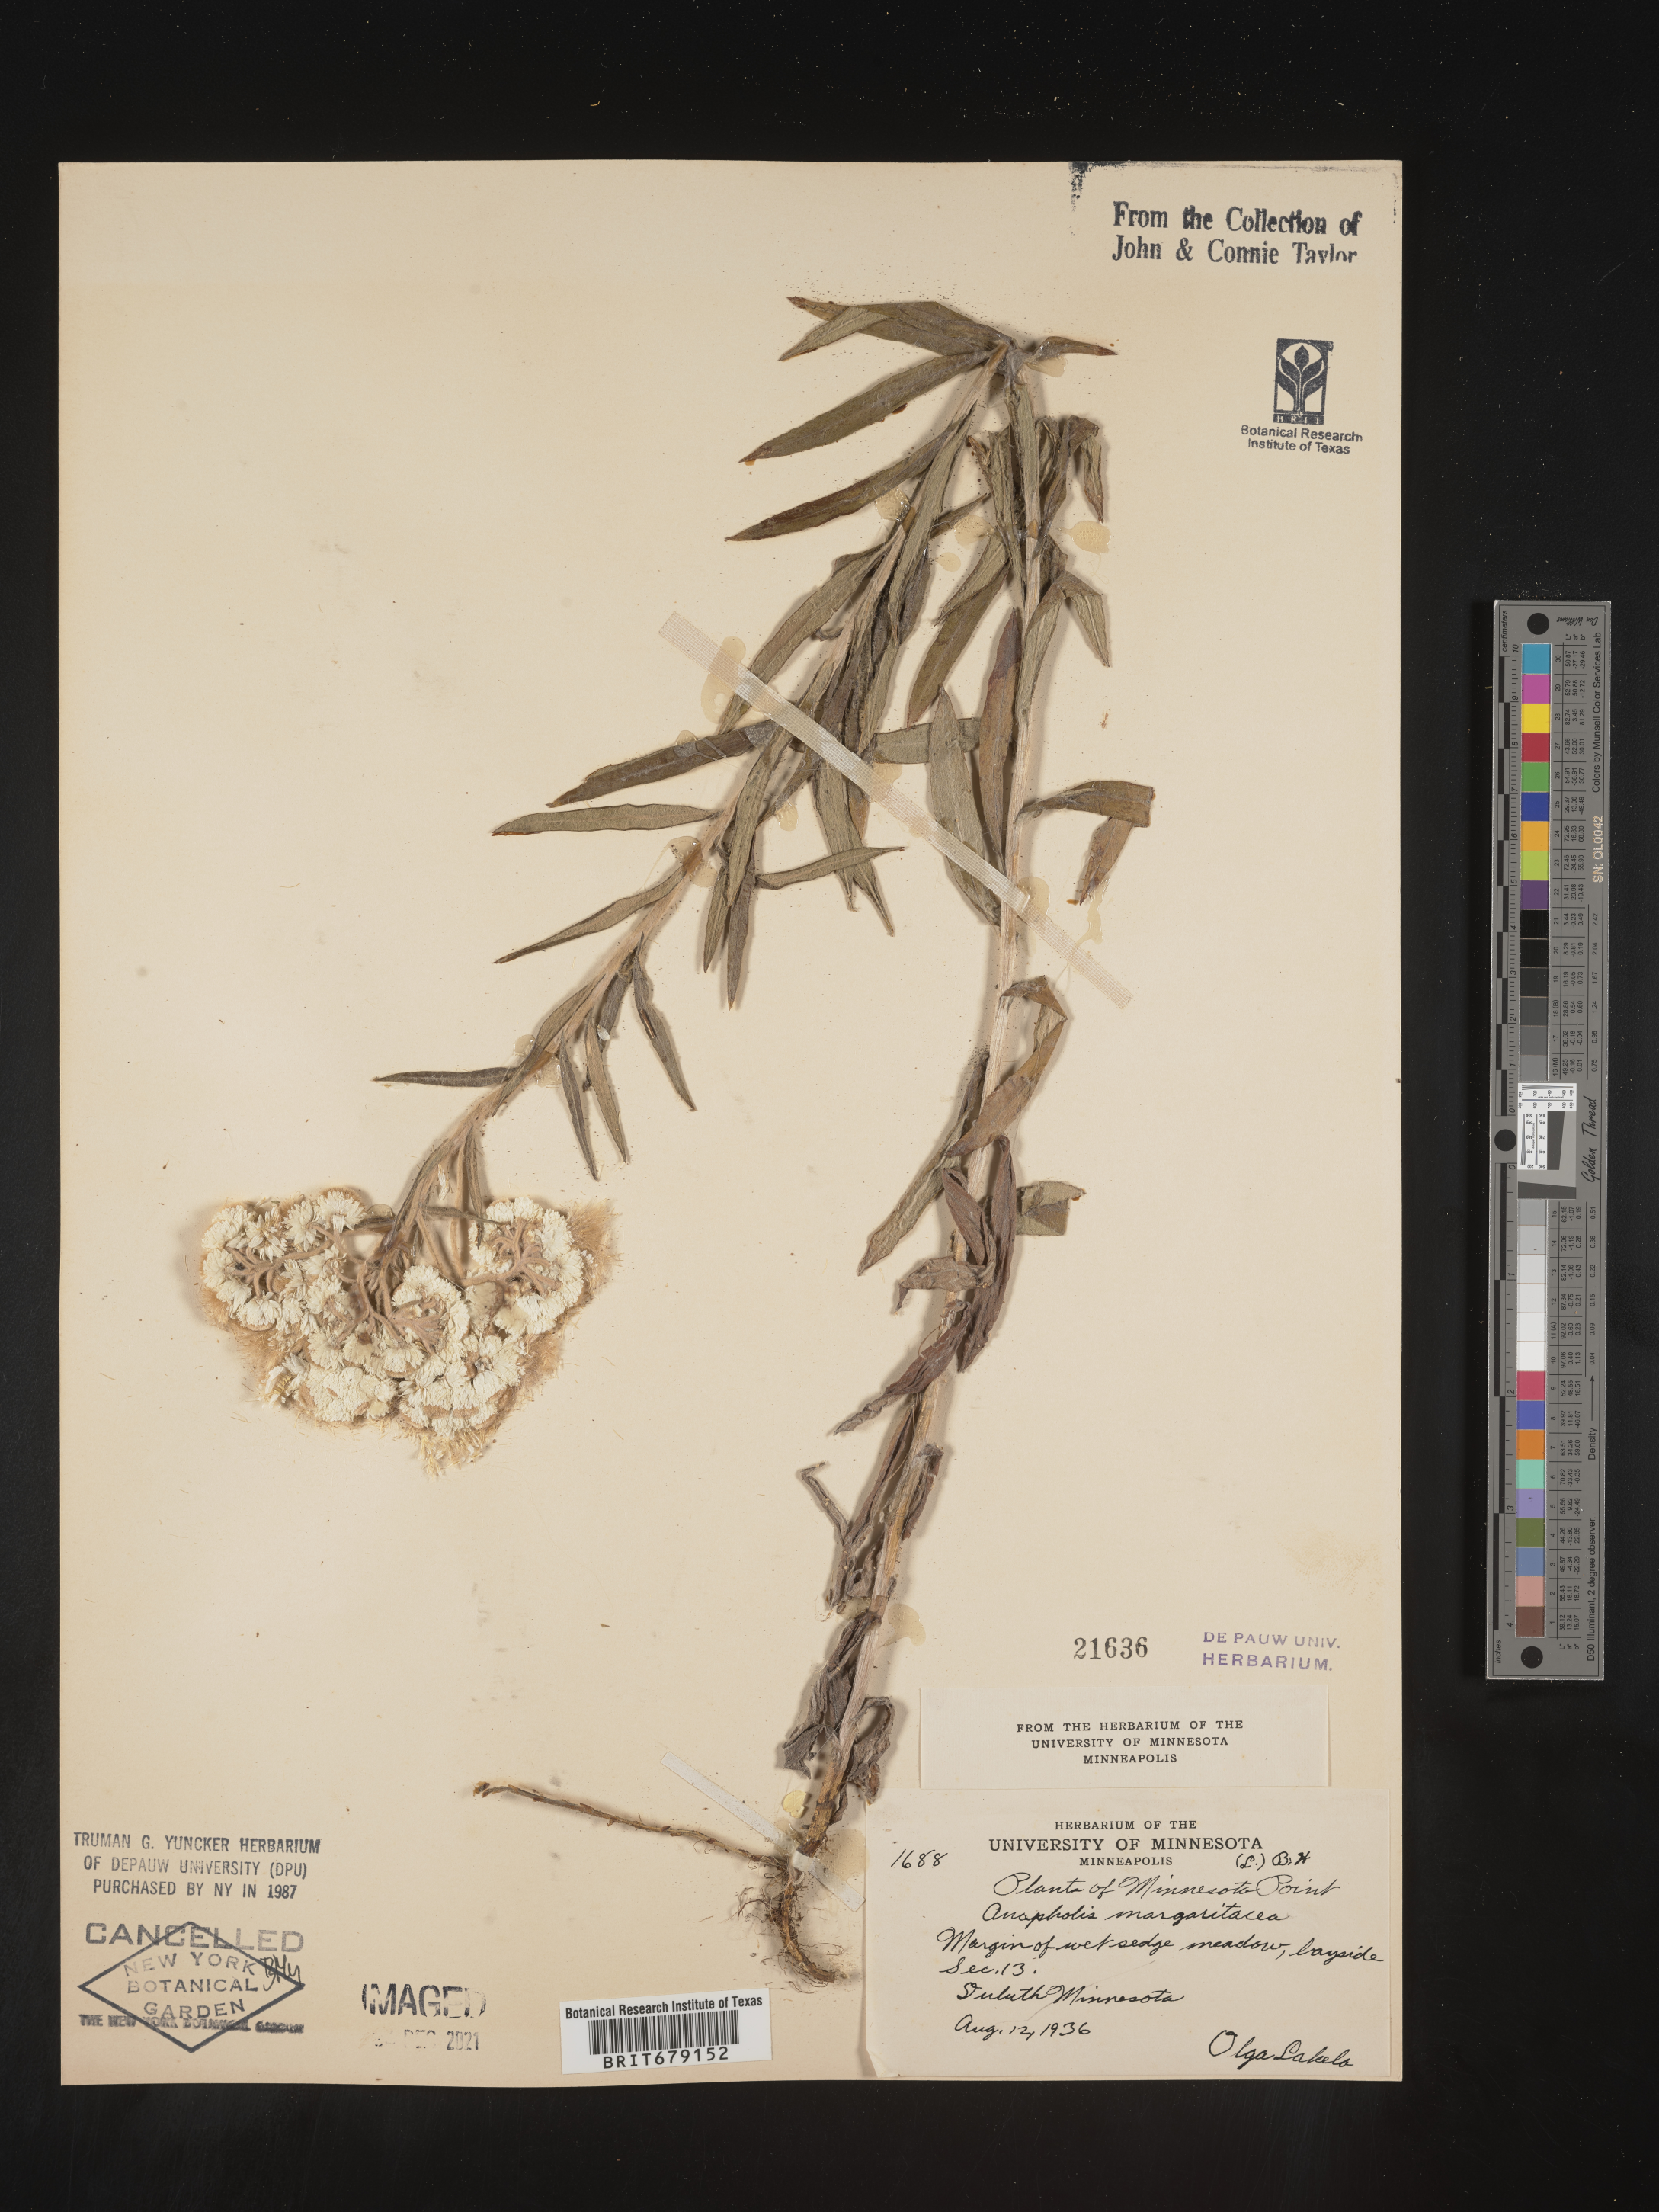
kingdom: Plantae
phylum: Tracheophyta
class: Magnoliopsida
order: Asterales
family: Asteraceae
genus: Anaphalis
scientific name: Anaphalis margaritacea
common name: Pearly everlasting
